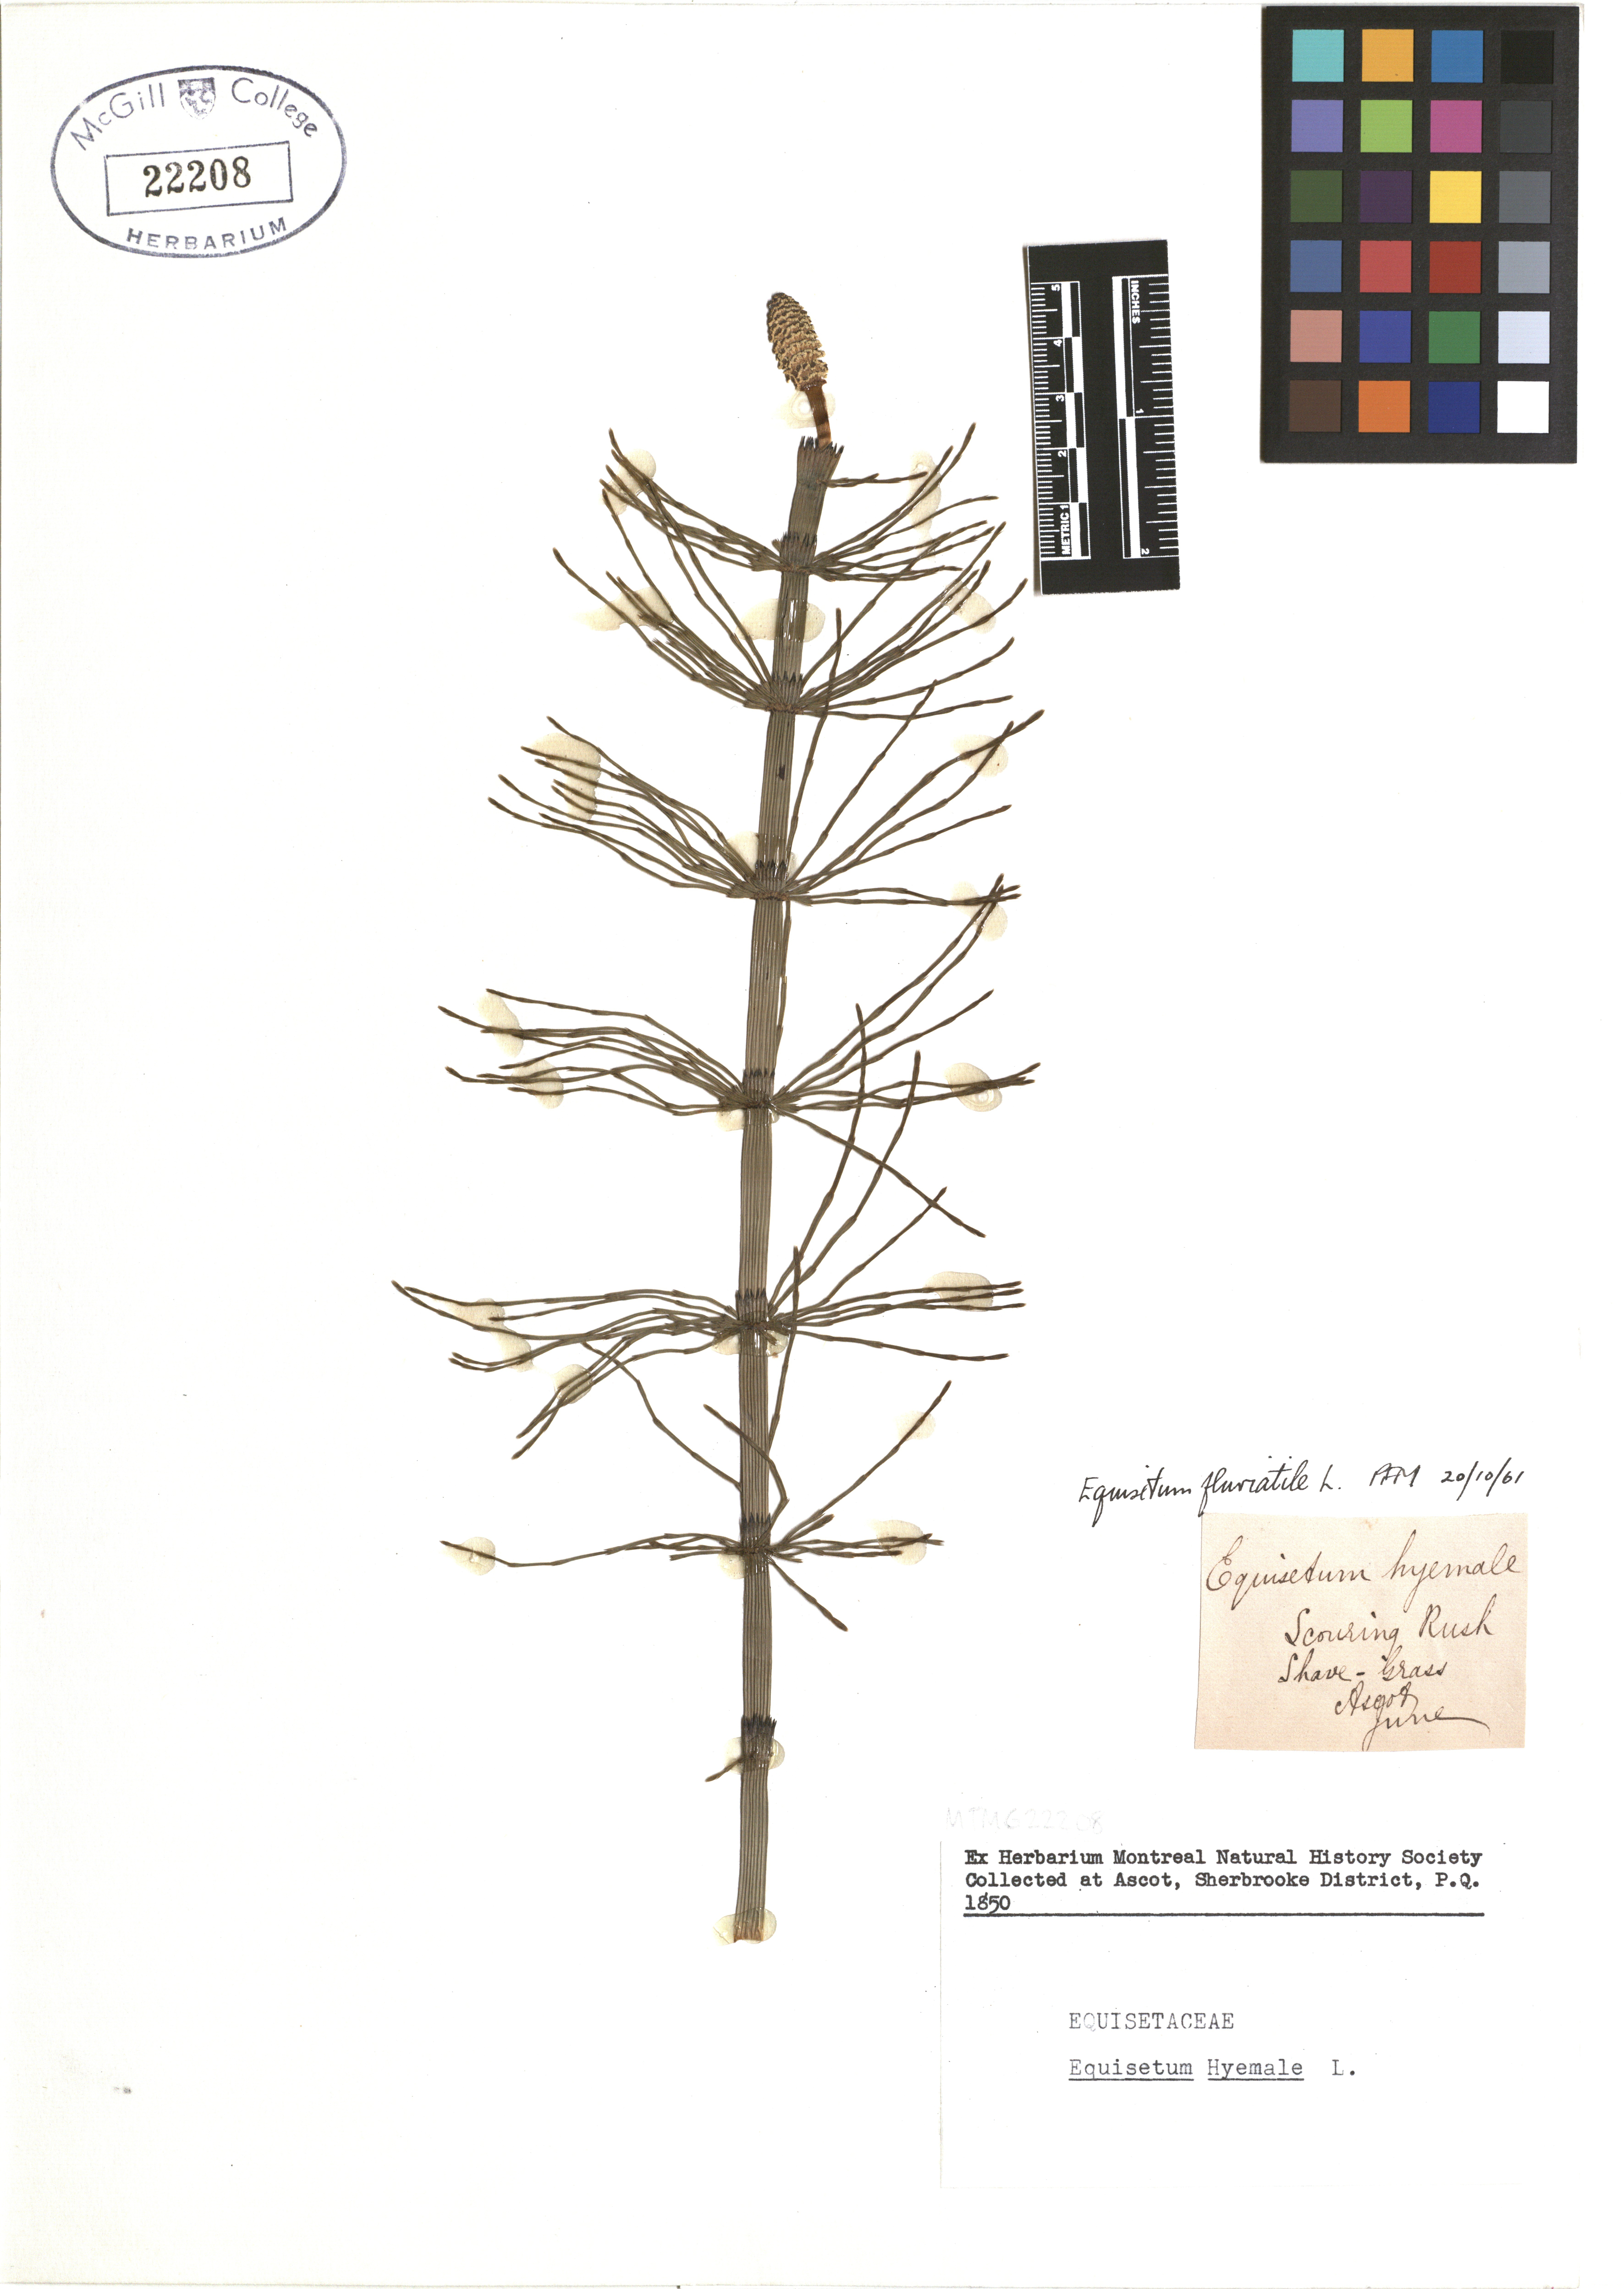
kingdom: Plantae
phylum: Tracheophyta
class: Polypodiopsida
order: Equisetales
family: Equisetaceae
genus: Equisetum
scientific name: Equisetum hyemale
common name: Rough horsetail
